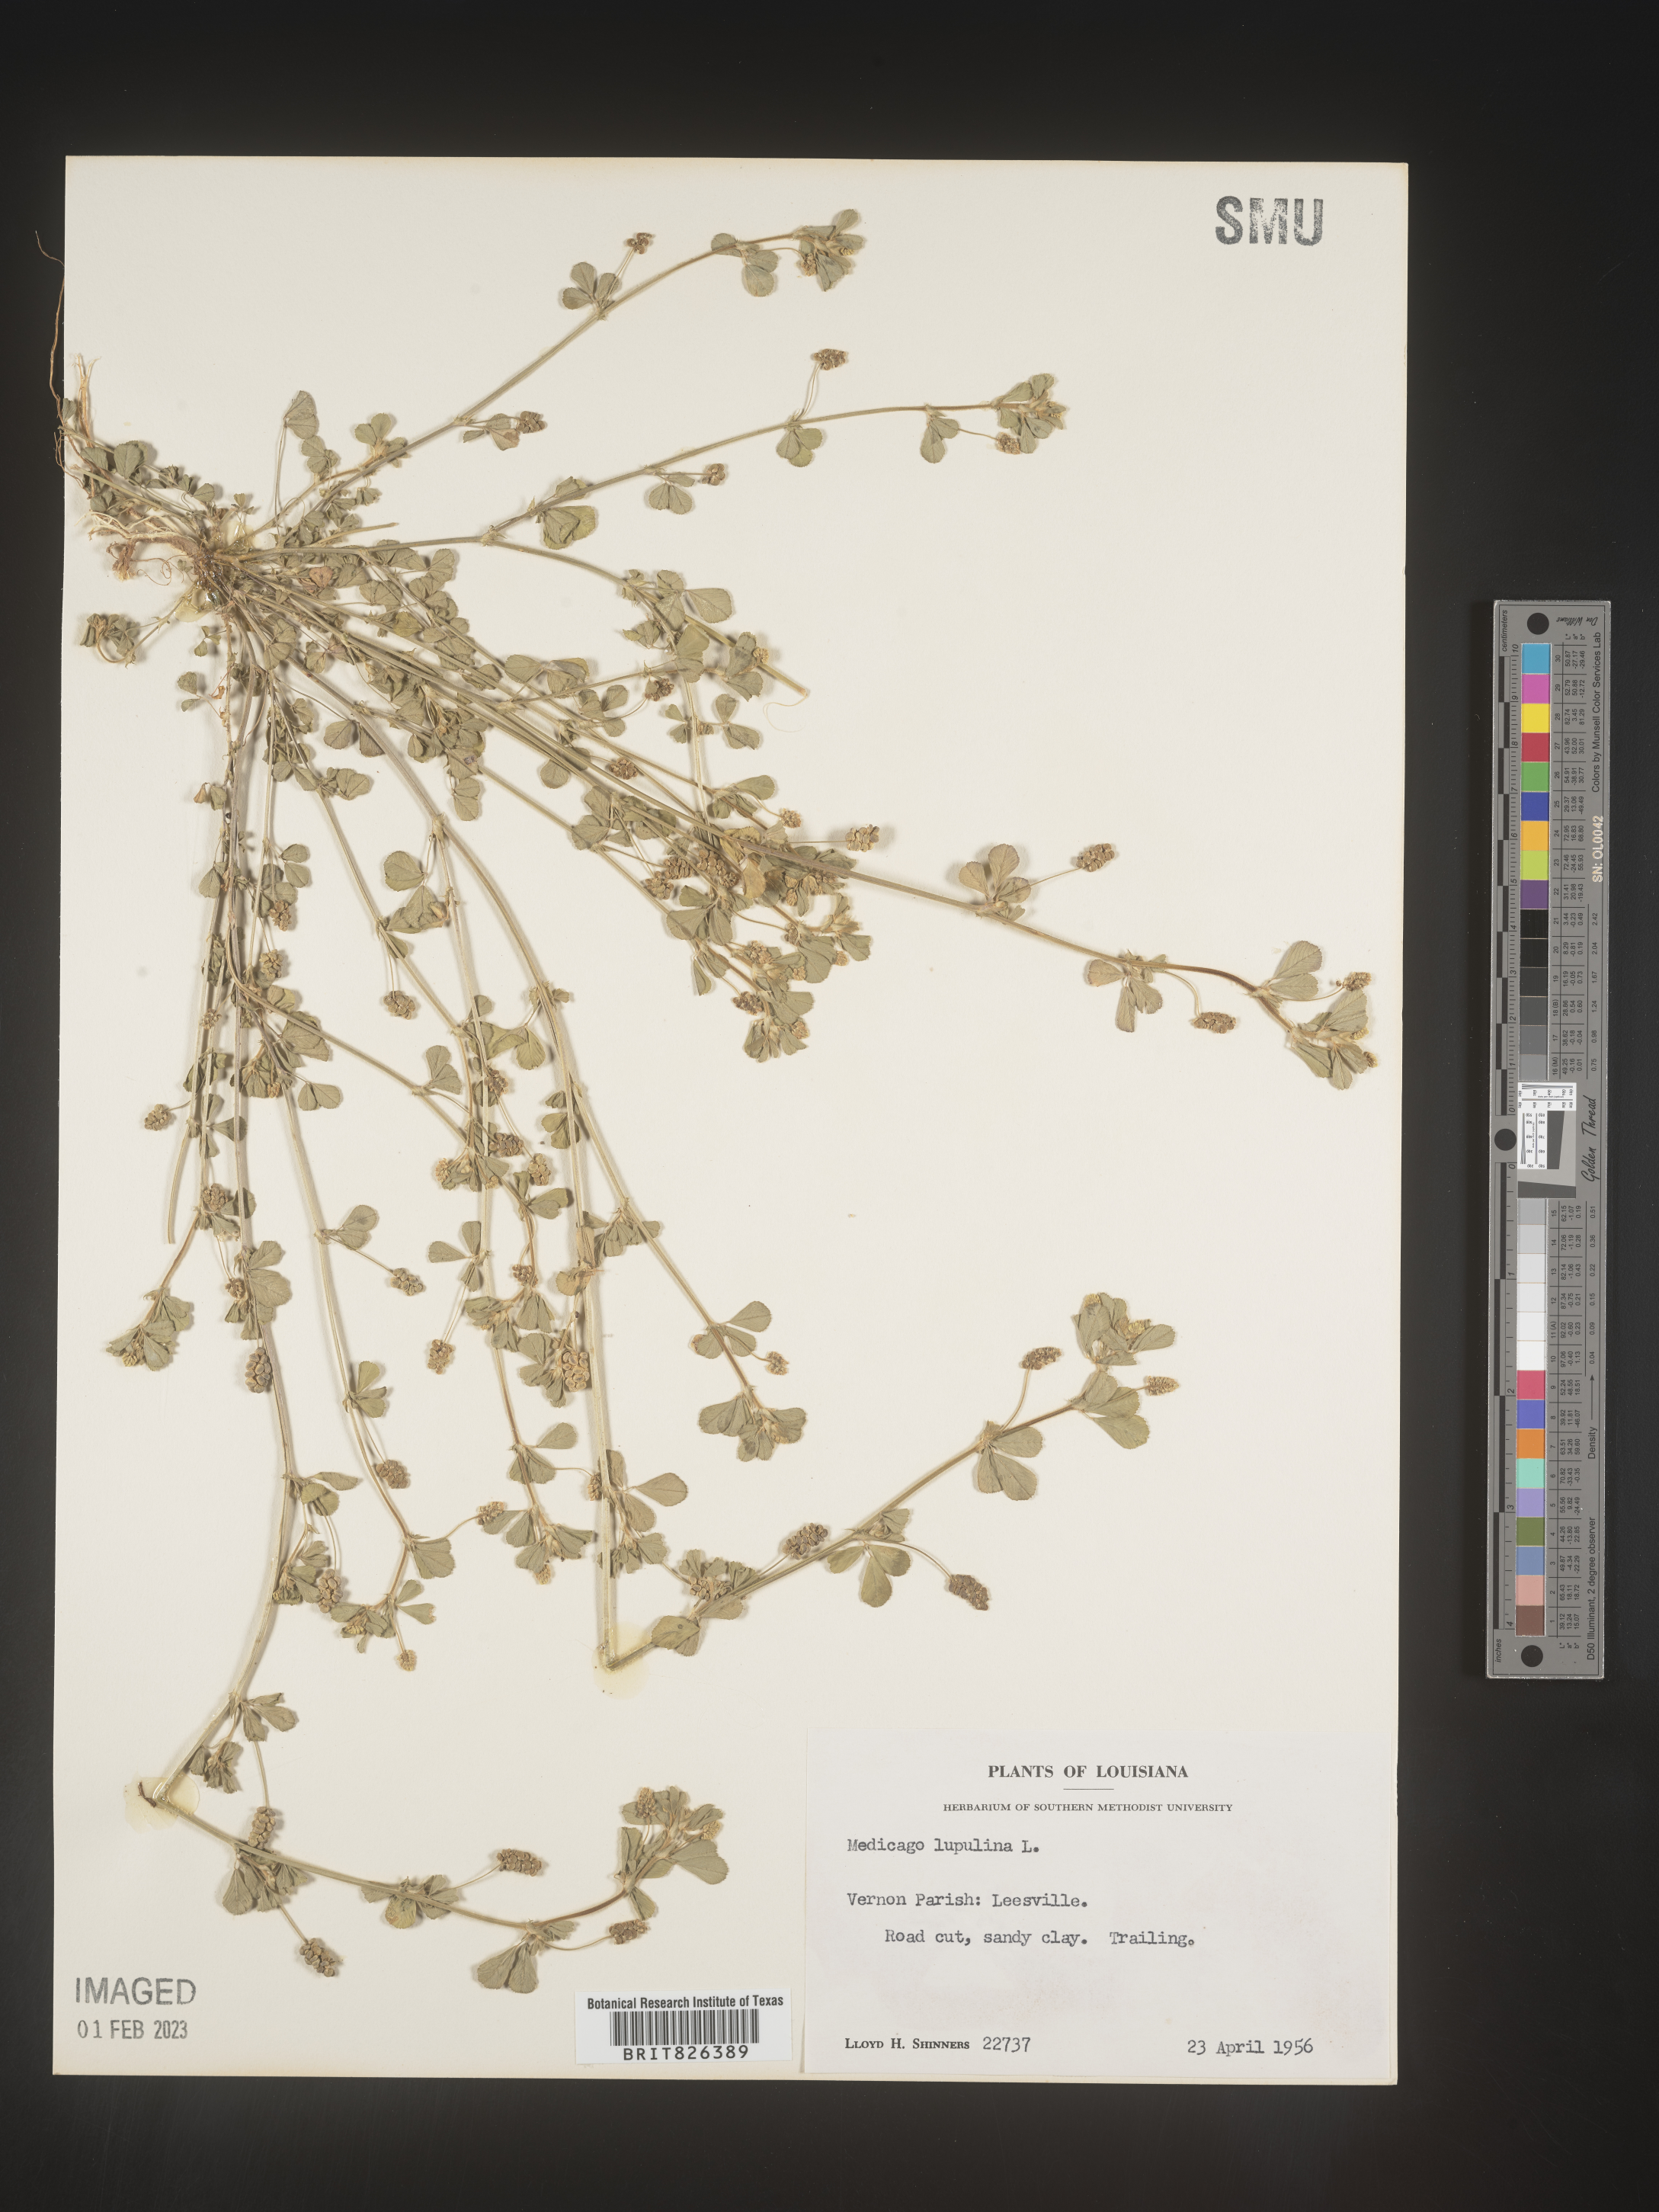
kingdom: Plantae
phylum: Tracheophyta
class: Magnoliopsida
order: Fabales
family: Fabaceae
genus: Medicago
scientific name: Medicago lupulina
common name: Black medick
